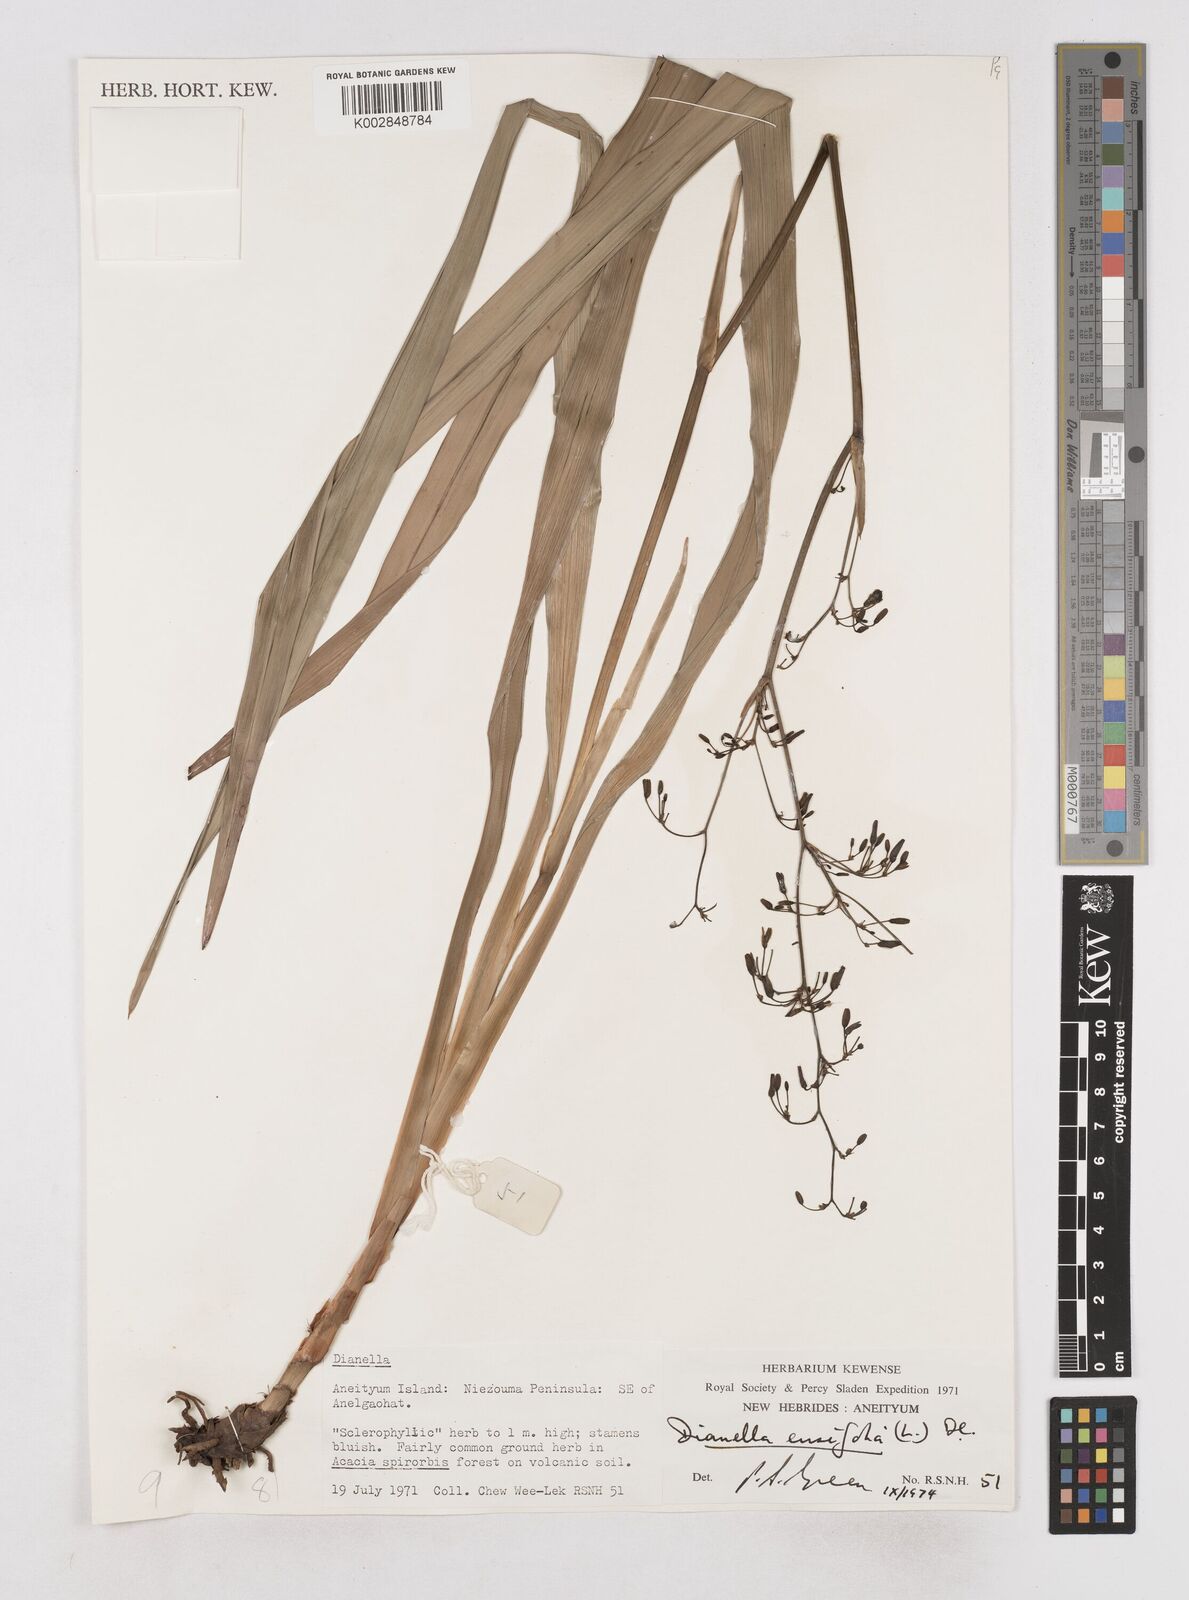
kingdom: Plantae
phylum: Tracheophyta
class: Liliopsida
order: Asparagales
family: Asphodelaceae
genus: Dianella
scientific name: Dianella ensifolia
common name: New zealand lilyplant
